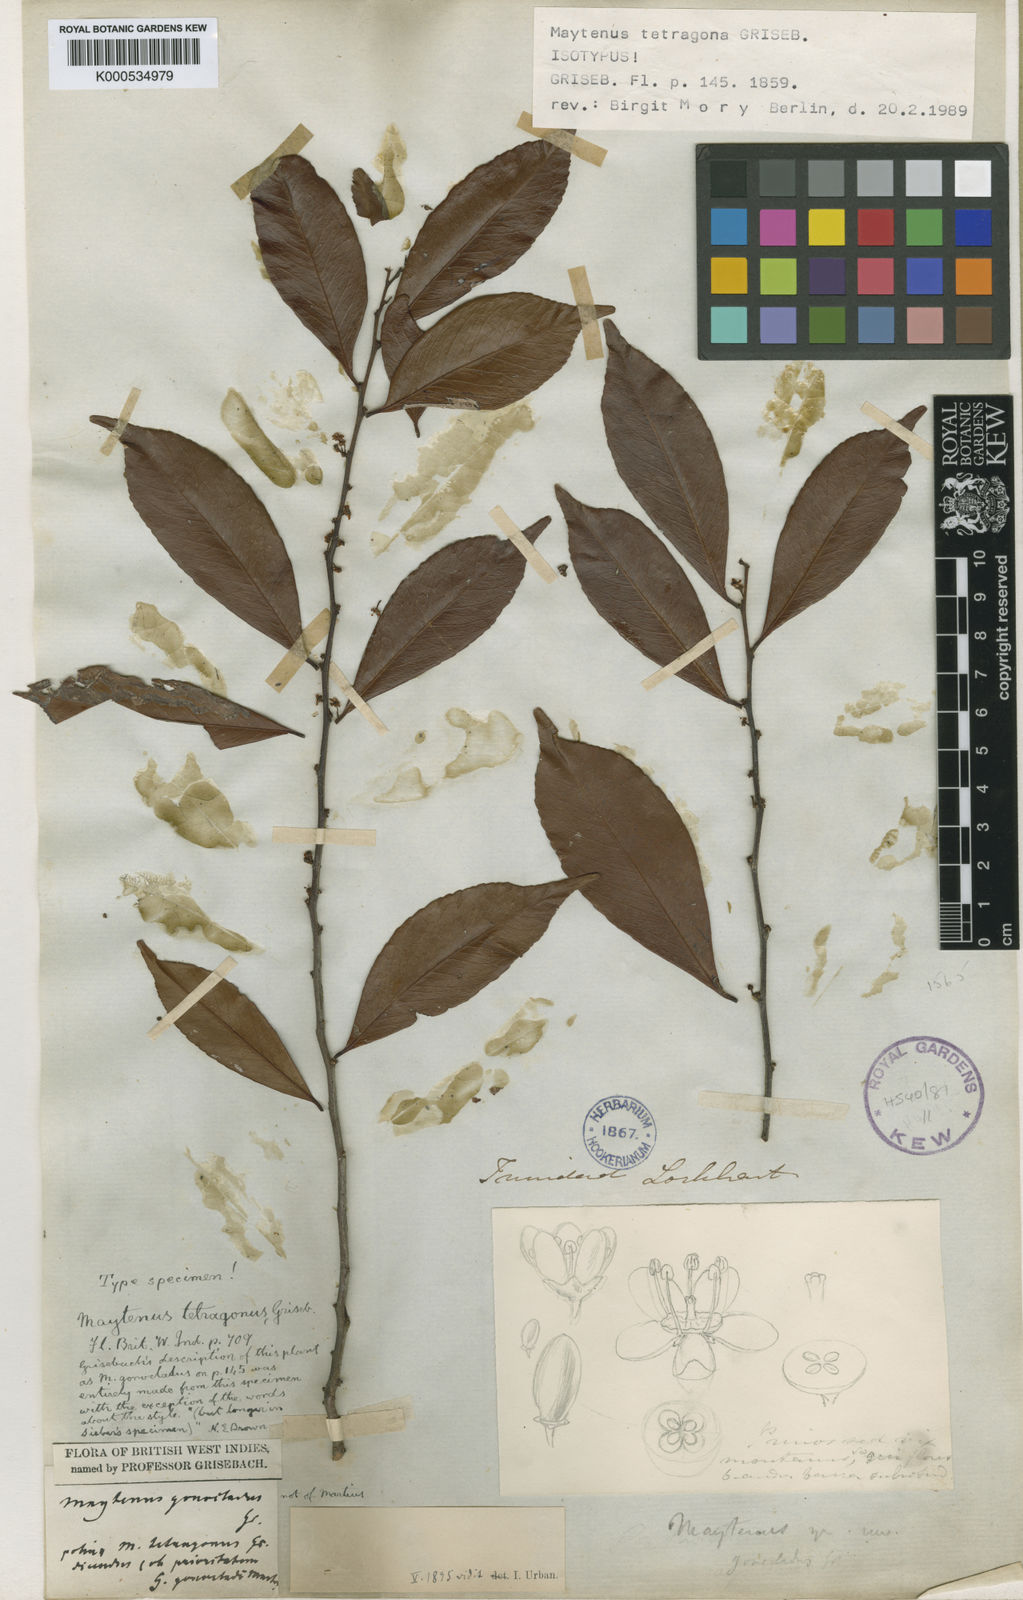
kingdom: Plantae
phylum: Tracheophyta
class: Magnoliopsida
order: Celastrales
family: Celastraceae
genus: Monteverdia
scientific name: Monteverdia tetragona
